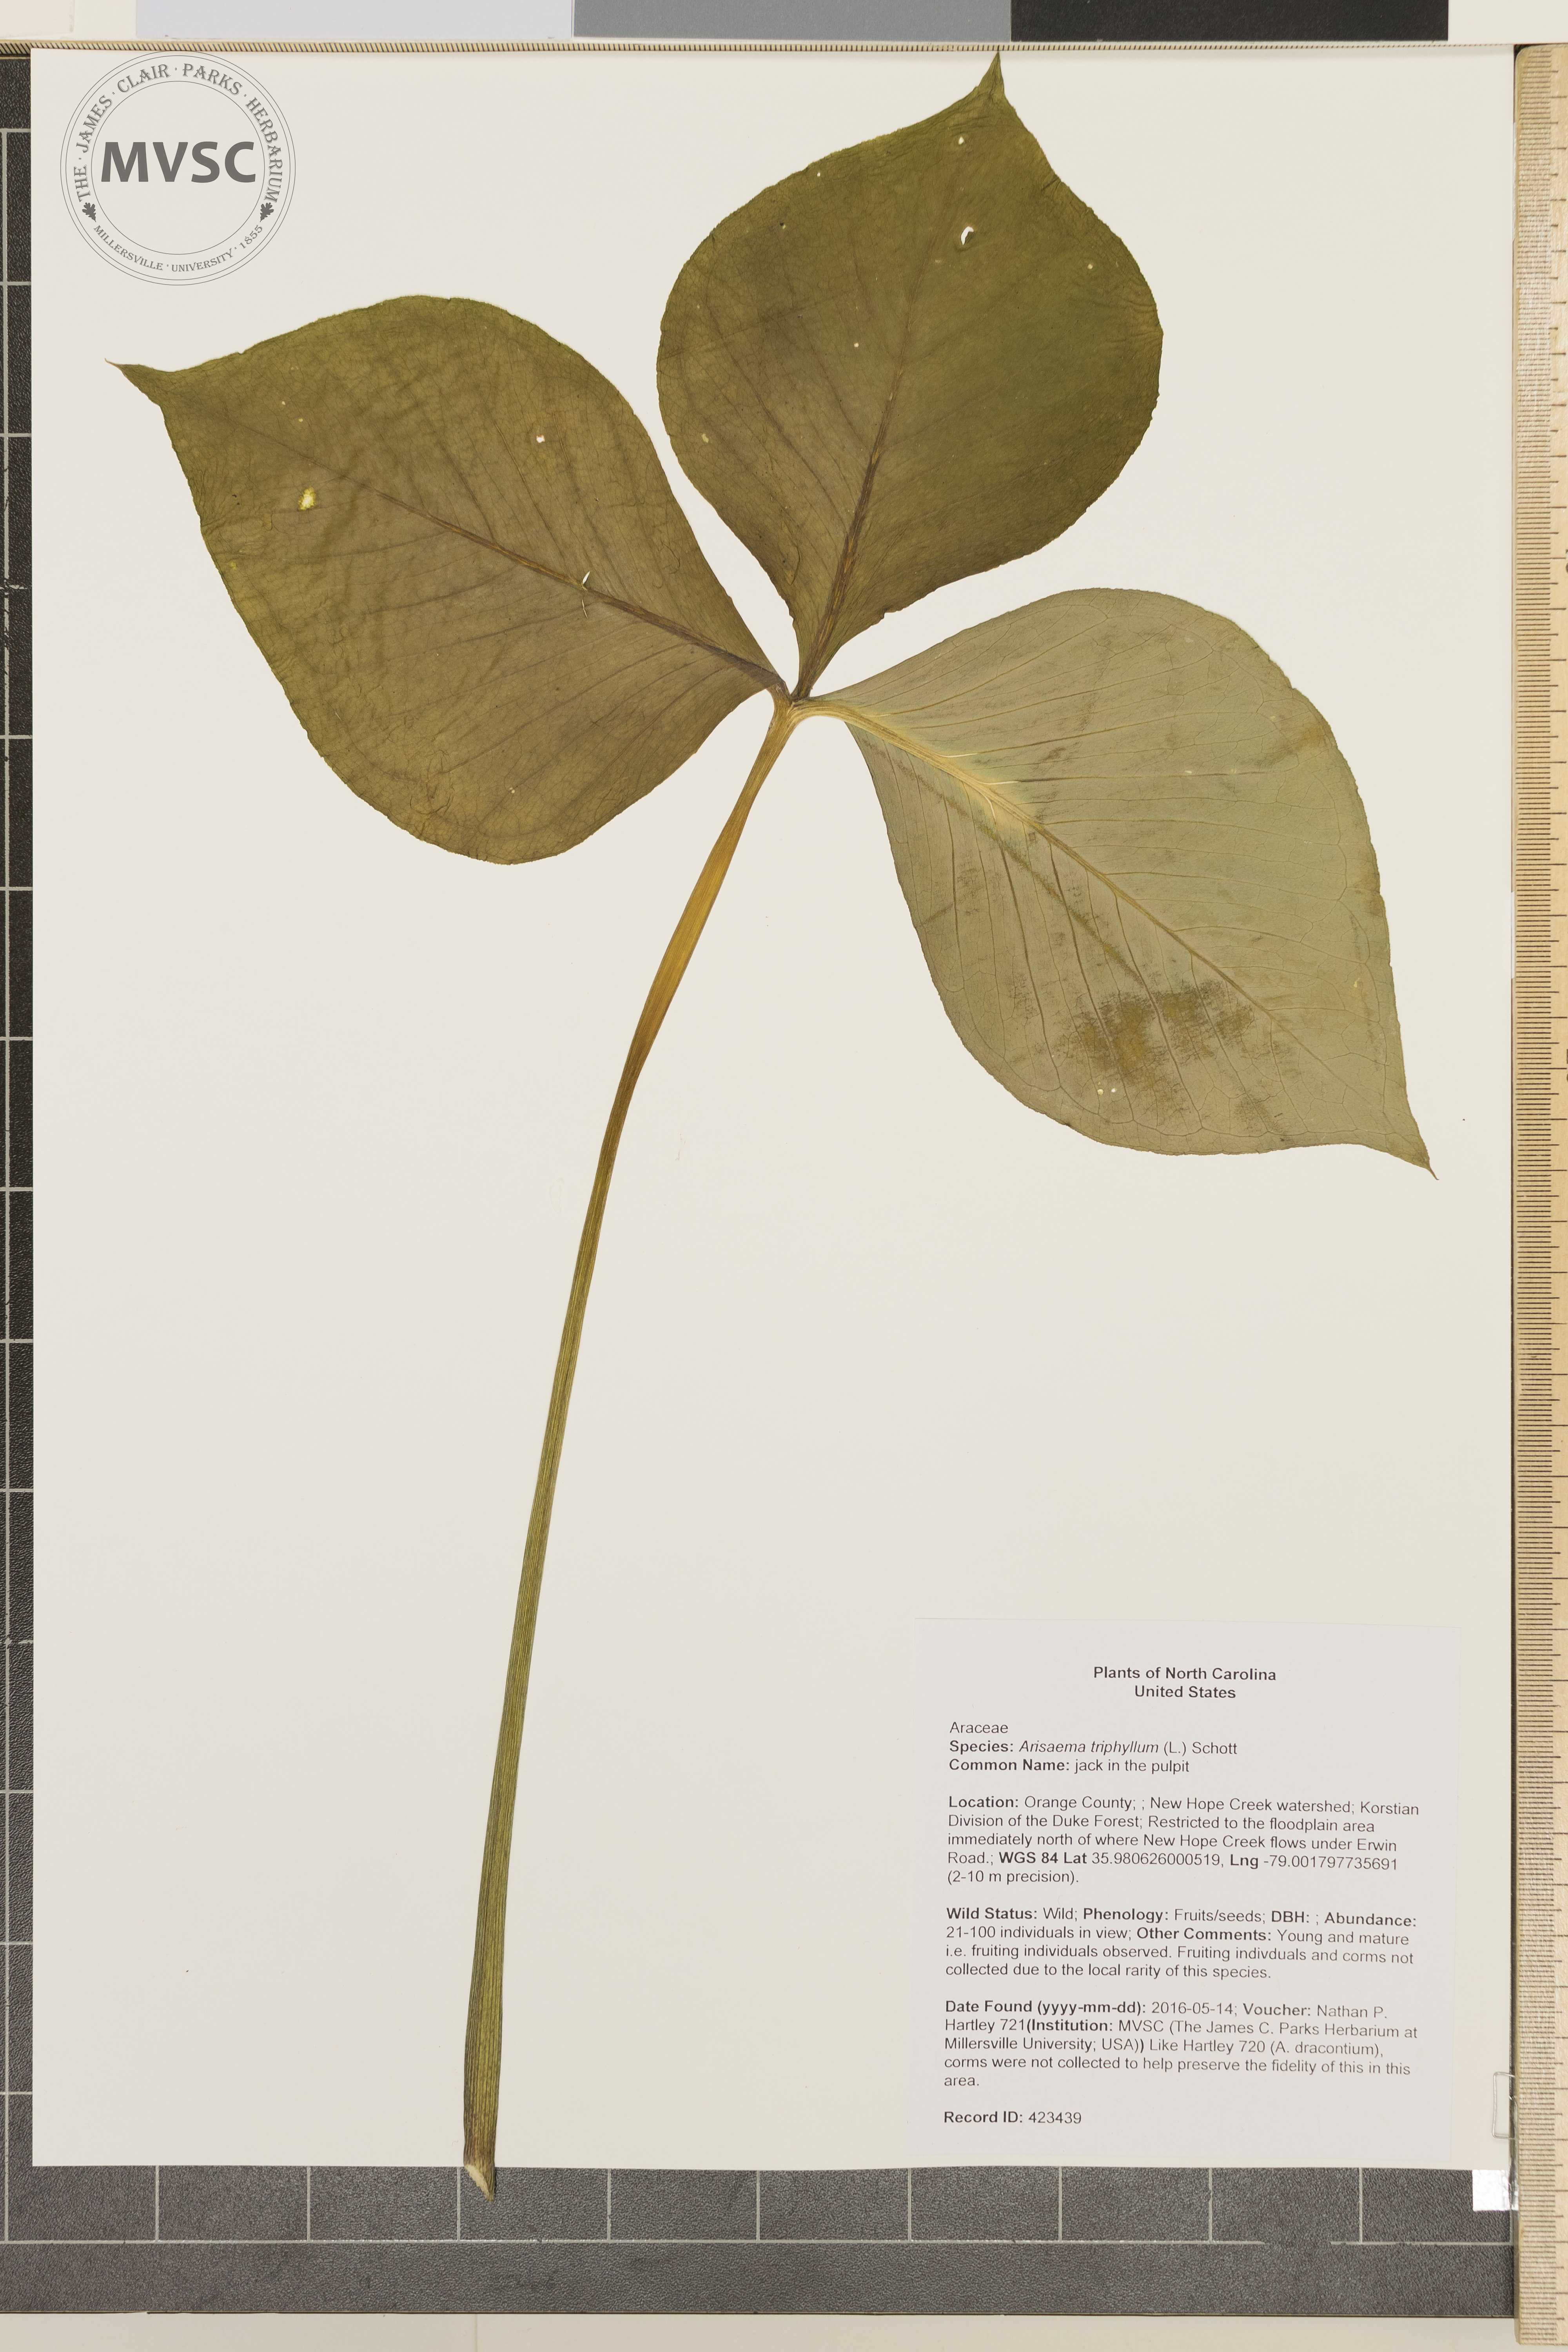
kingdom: Plantae
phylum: Tracheophyta
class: Liliopsida
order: Alismatales
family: Araceae
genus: Arisaema
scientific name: Arisaema triphyllum
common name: jack in the pulpit
